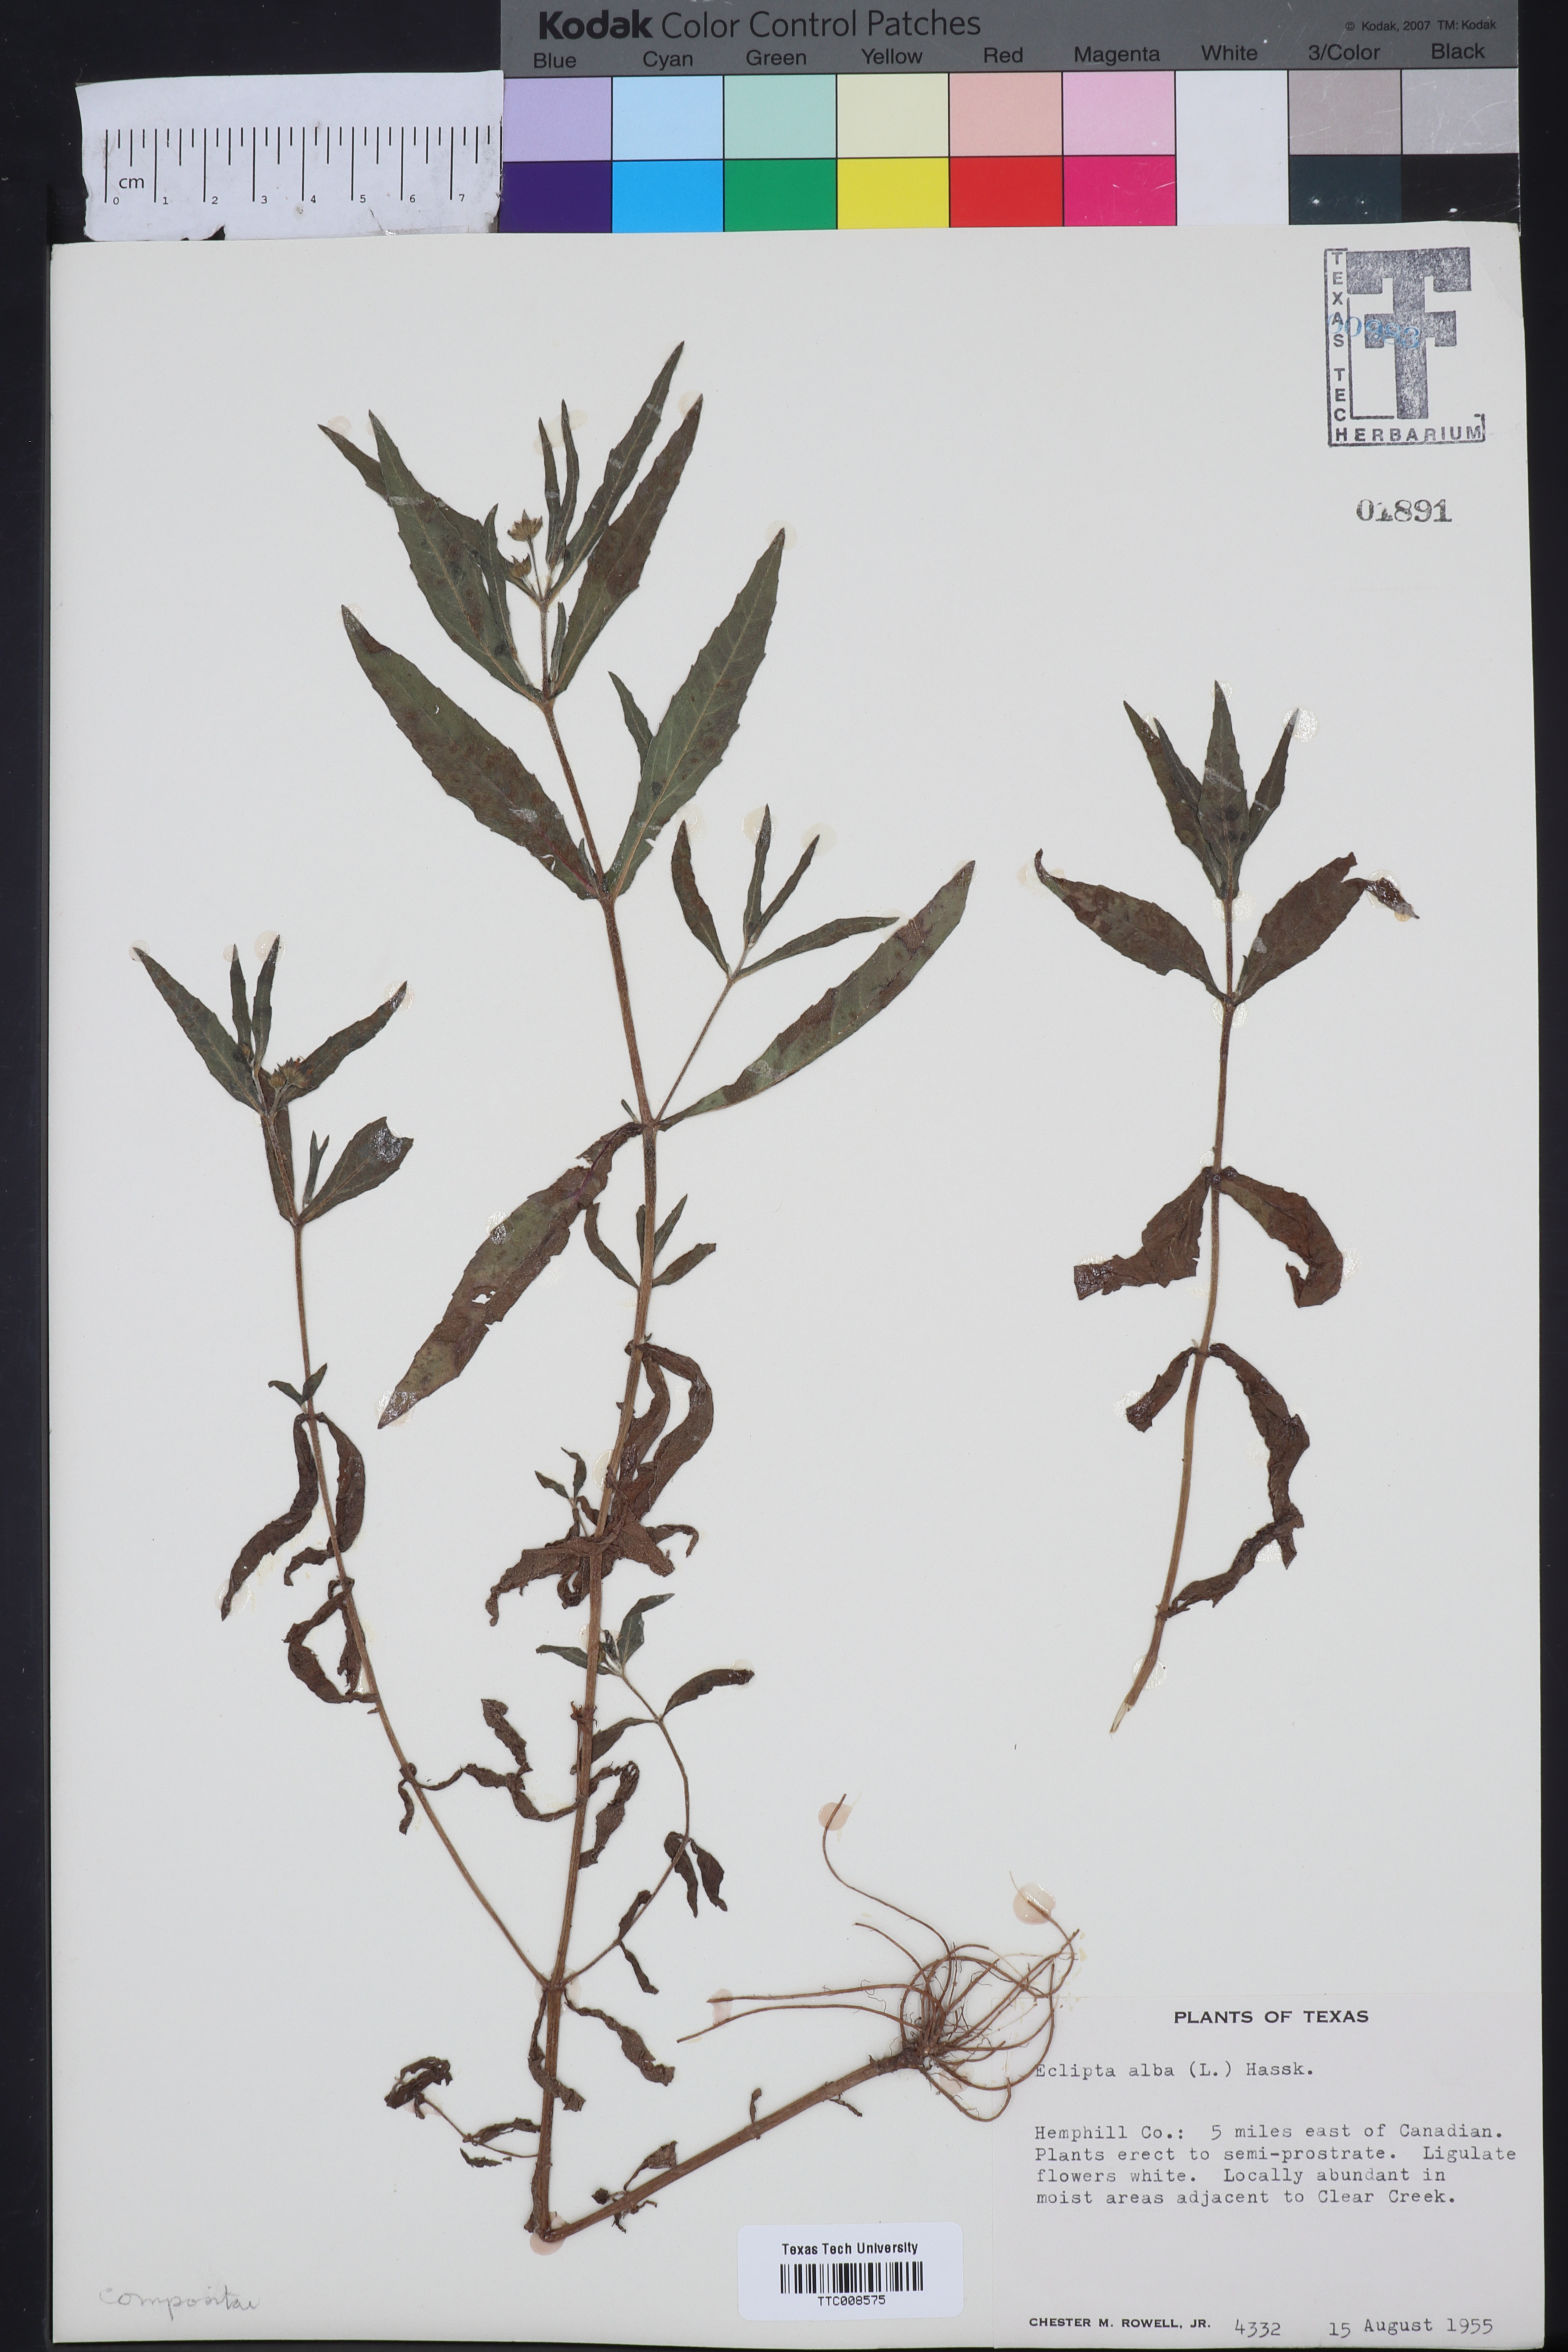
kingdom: Plantae
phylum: Tracheophyta
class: Magnoliopsida
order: Asterales
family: Asteraceae
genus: Eclipta
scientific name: Eclipta alba
